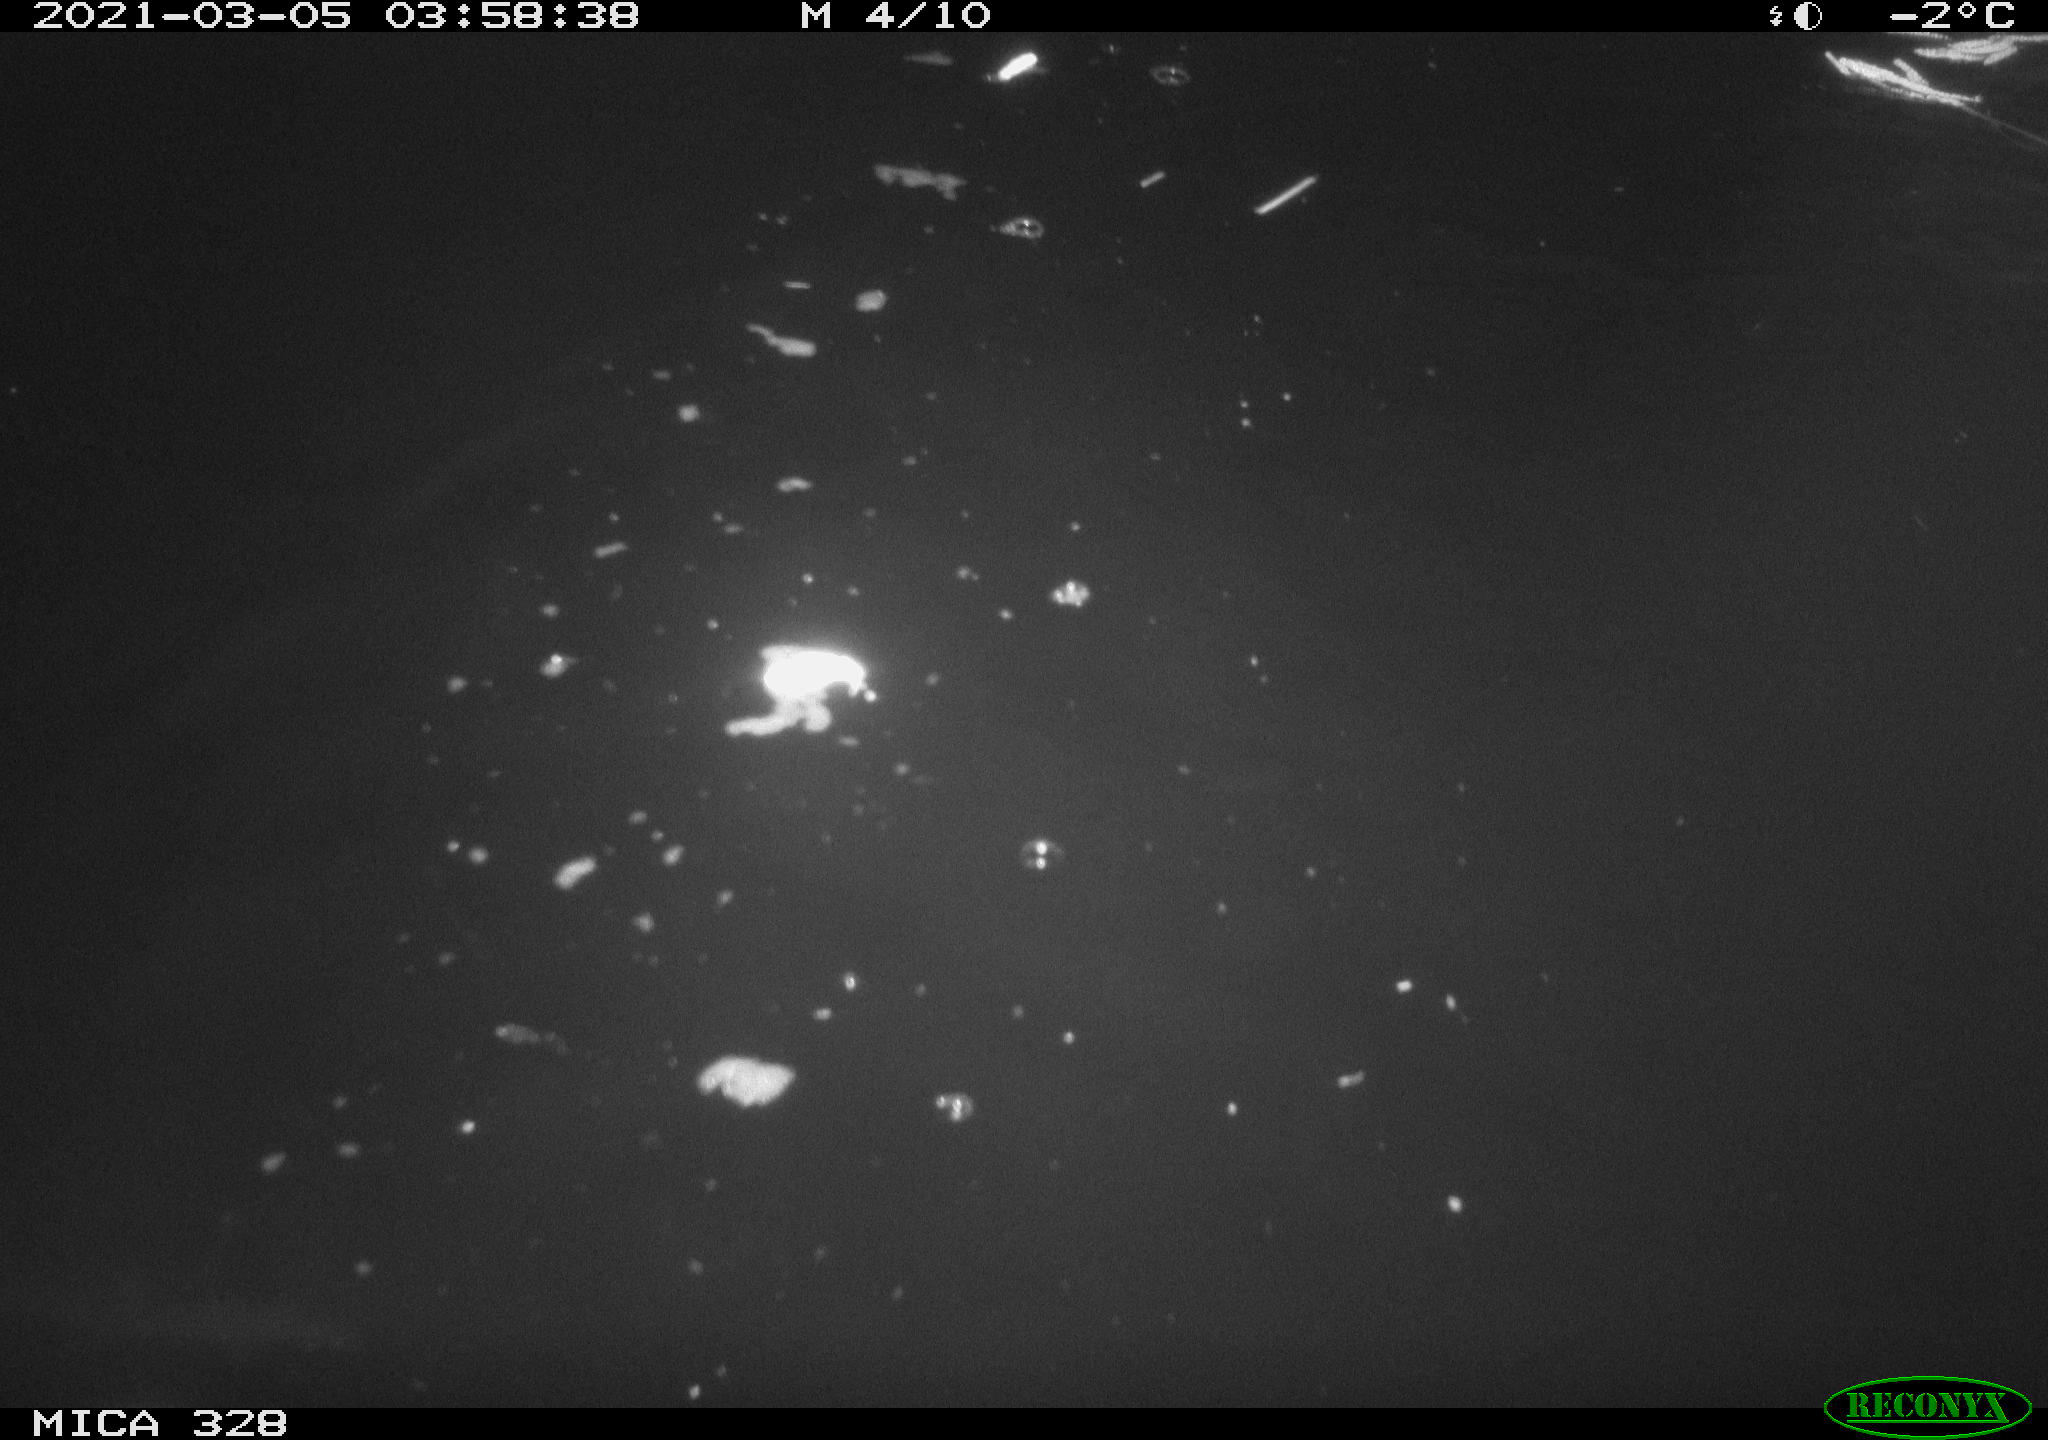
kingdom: Animalia
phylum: Chordata
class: Mammalia
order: Rodentia
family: Cricetidae
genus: Ondatra
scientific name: Ondatra zibethicus
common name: Muskrat
